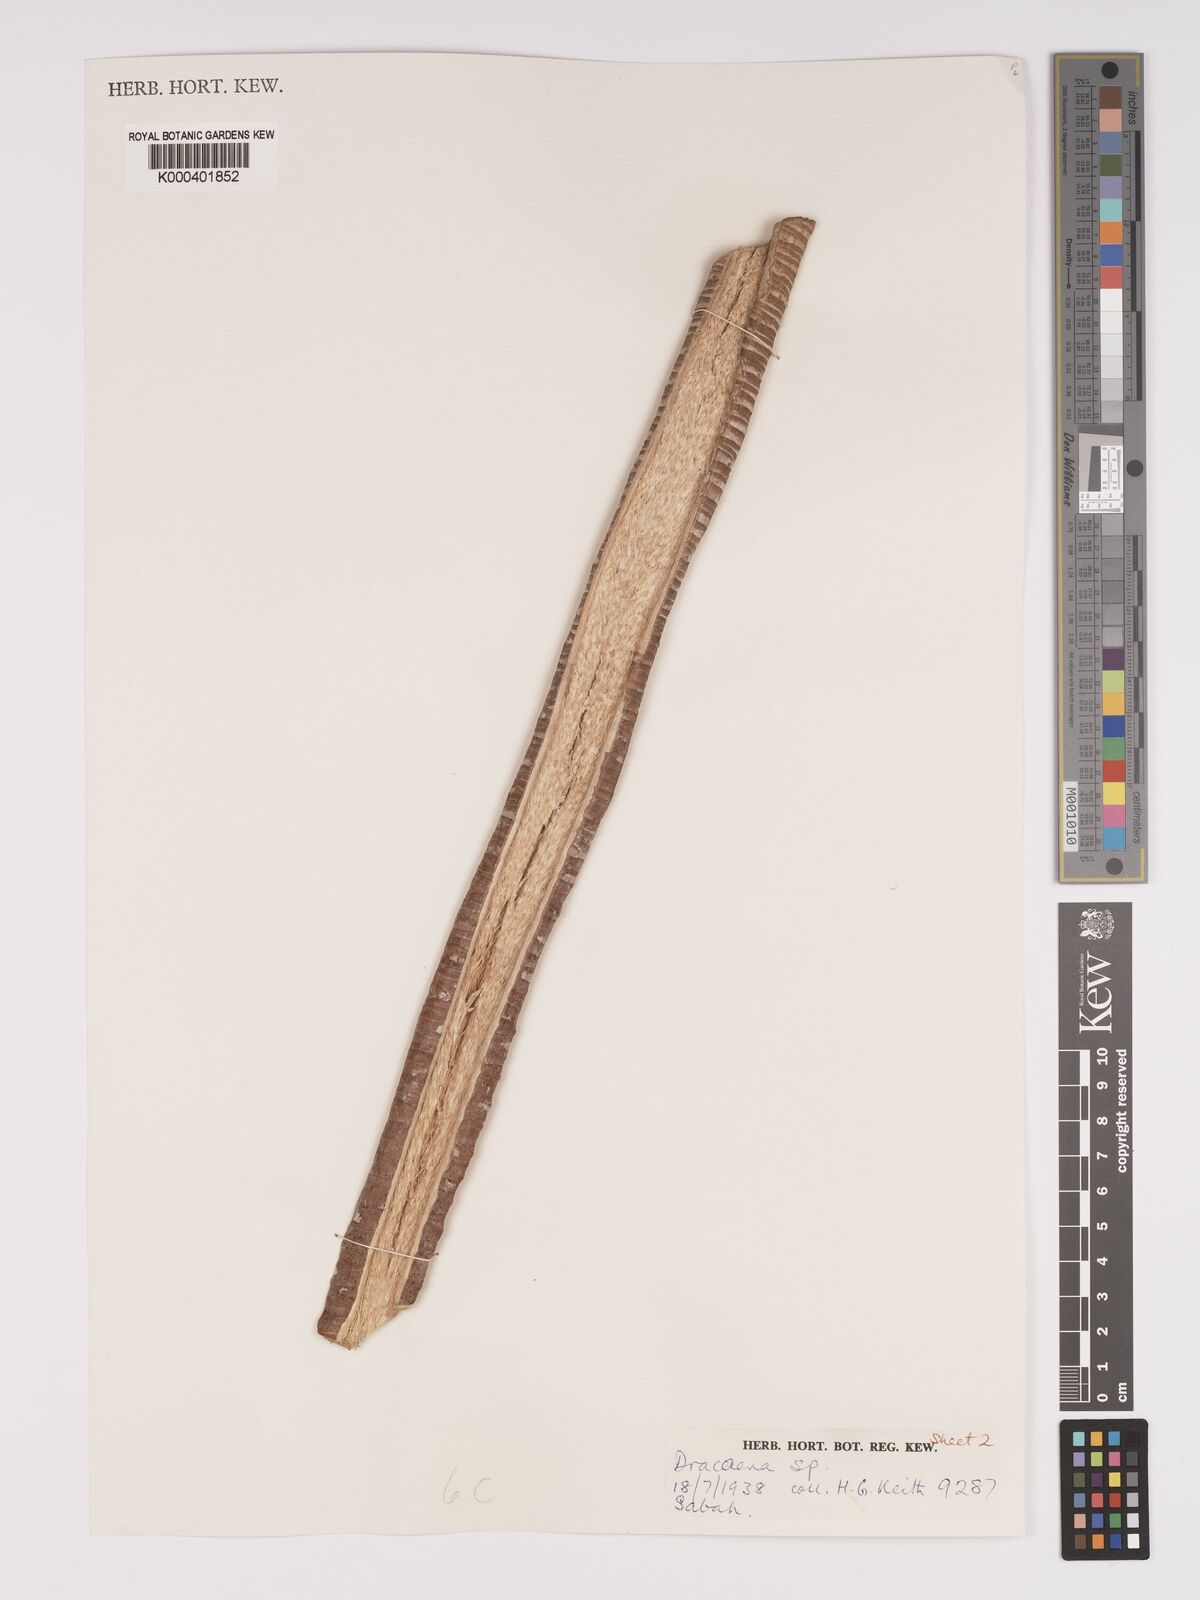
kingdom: Plantae
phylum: Tracheophyta
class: Liliopsida
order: Asparagales
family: Asparagaceae
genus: Dracaena
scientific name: Dracaena
